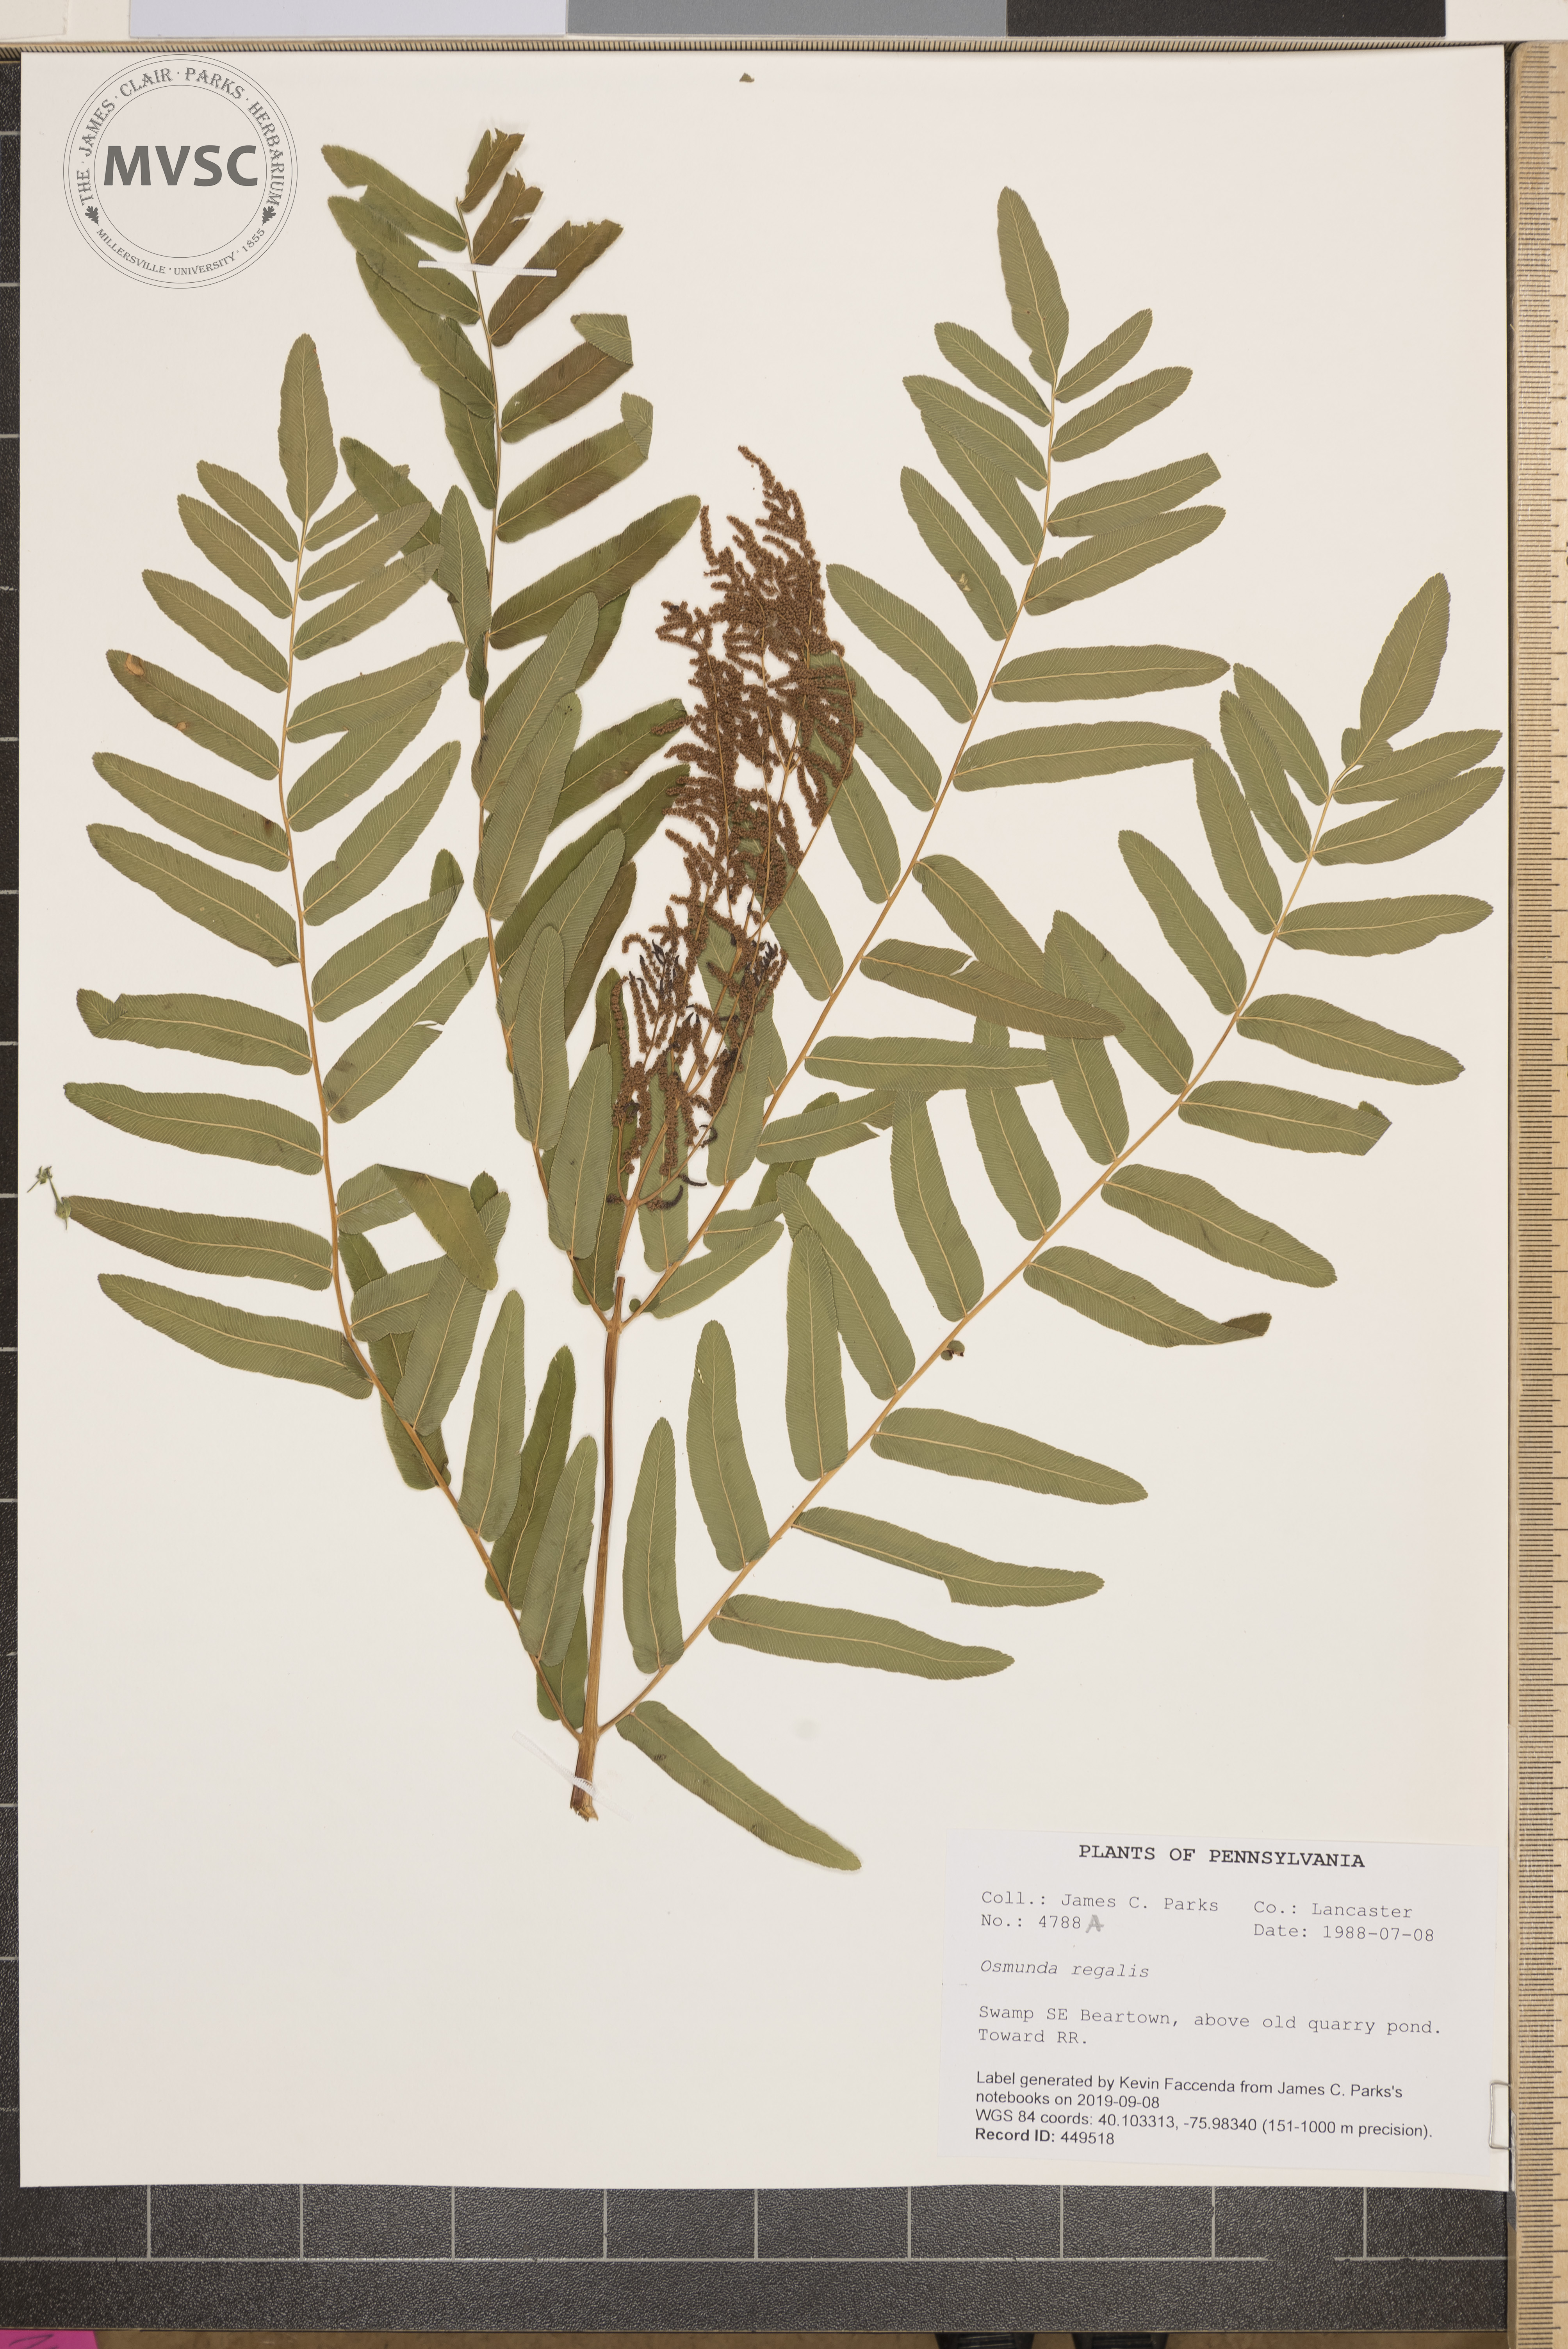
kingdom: Plantae
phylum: Tracheophyta
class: Polypodiopsida
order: Osmundales
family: Osmundaceae
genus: Osmunda
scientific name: Osmunda regalis
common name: Royal fern
